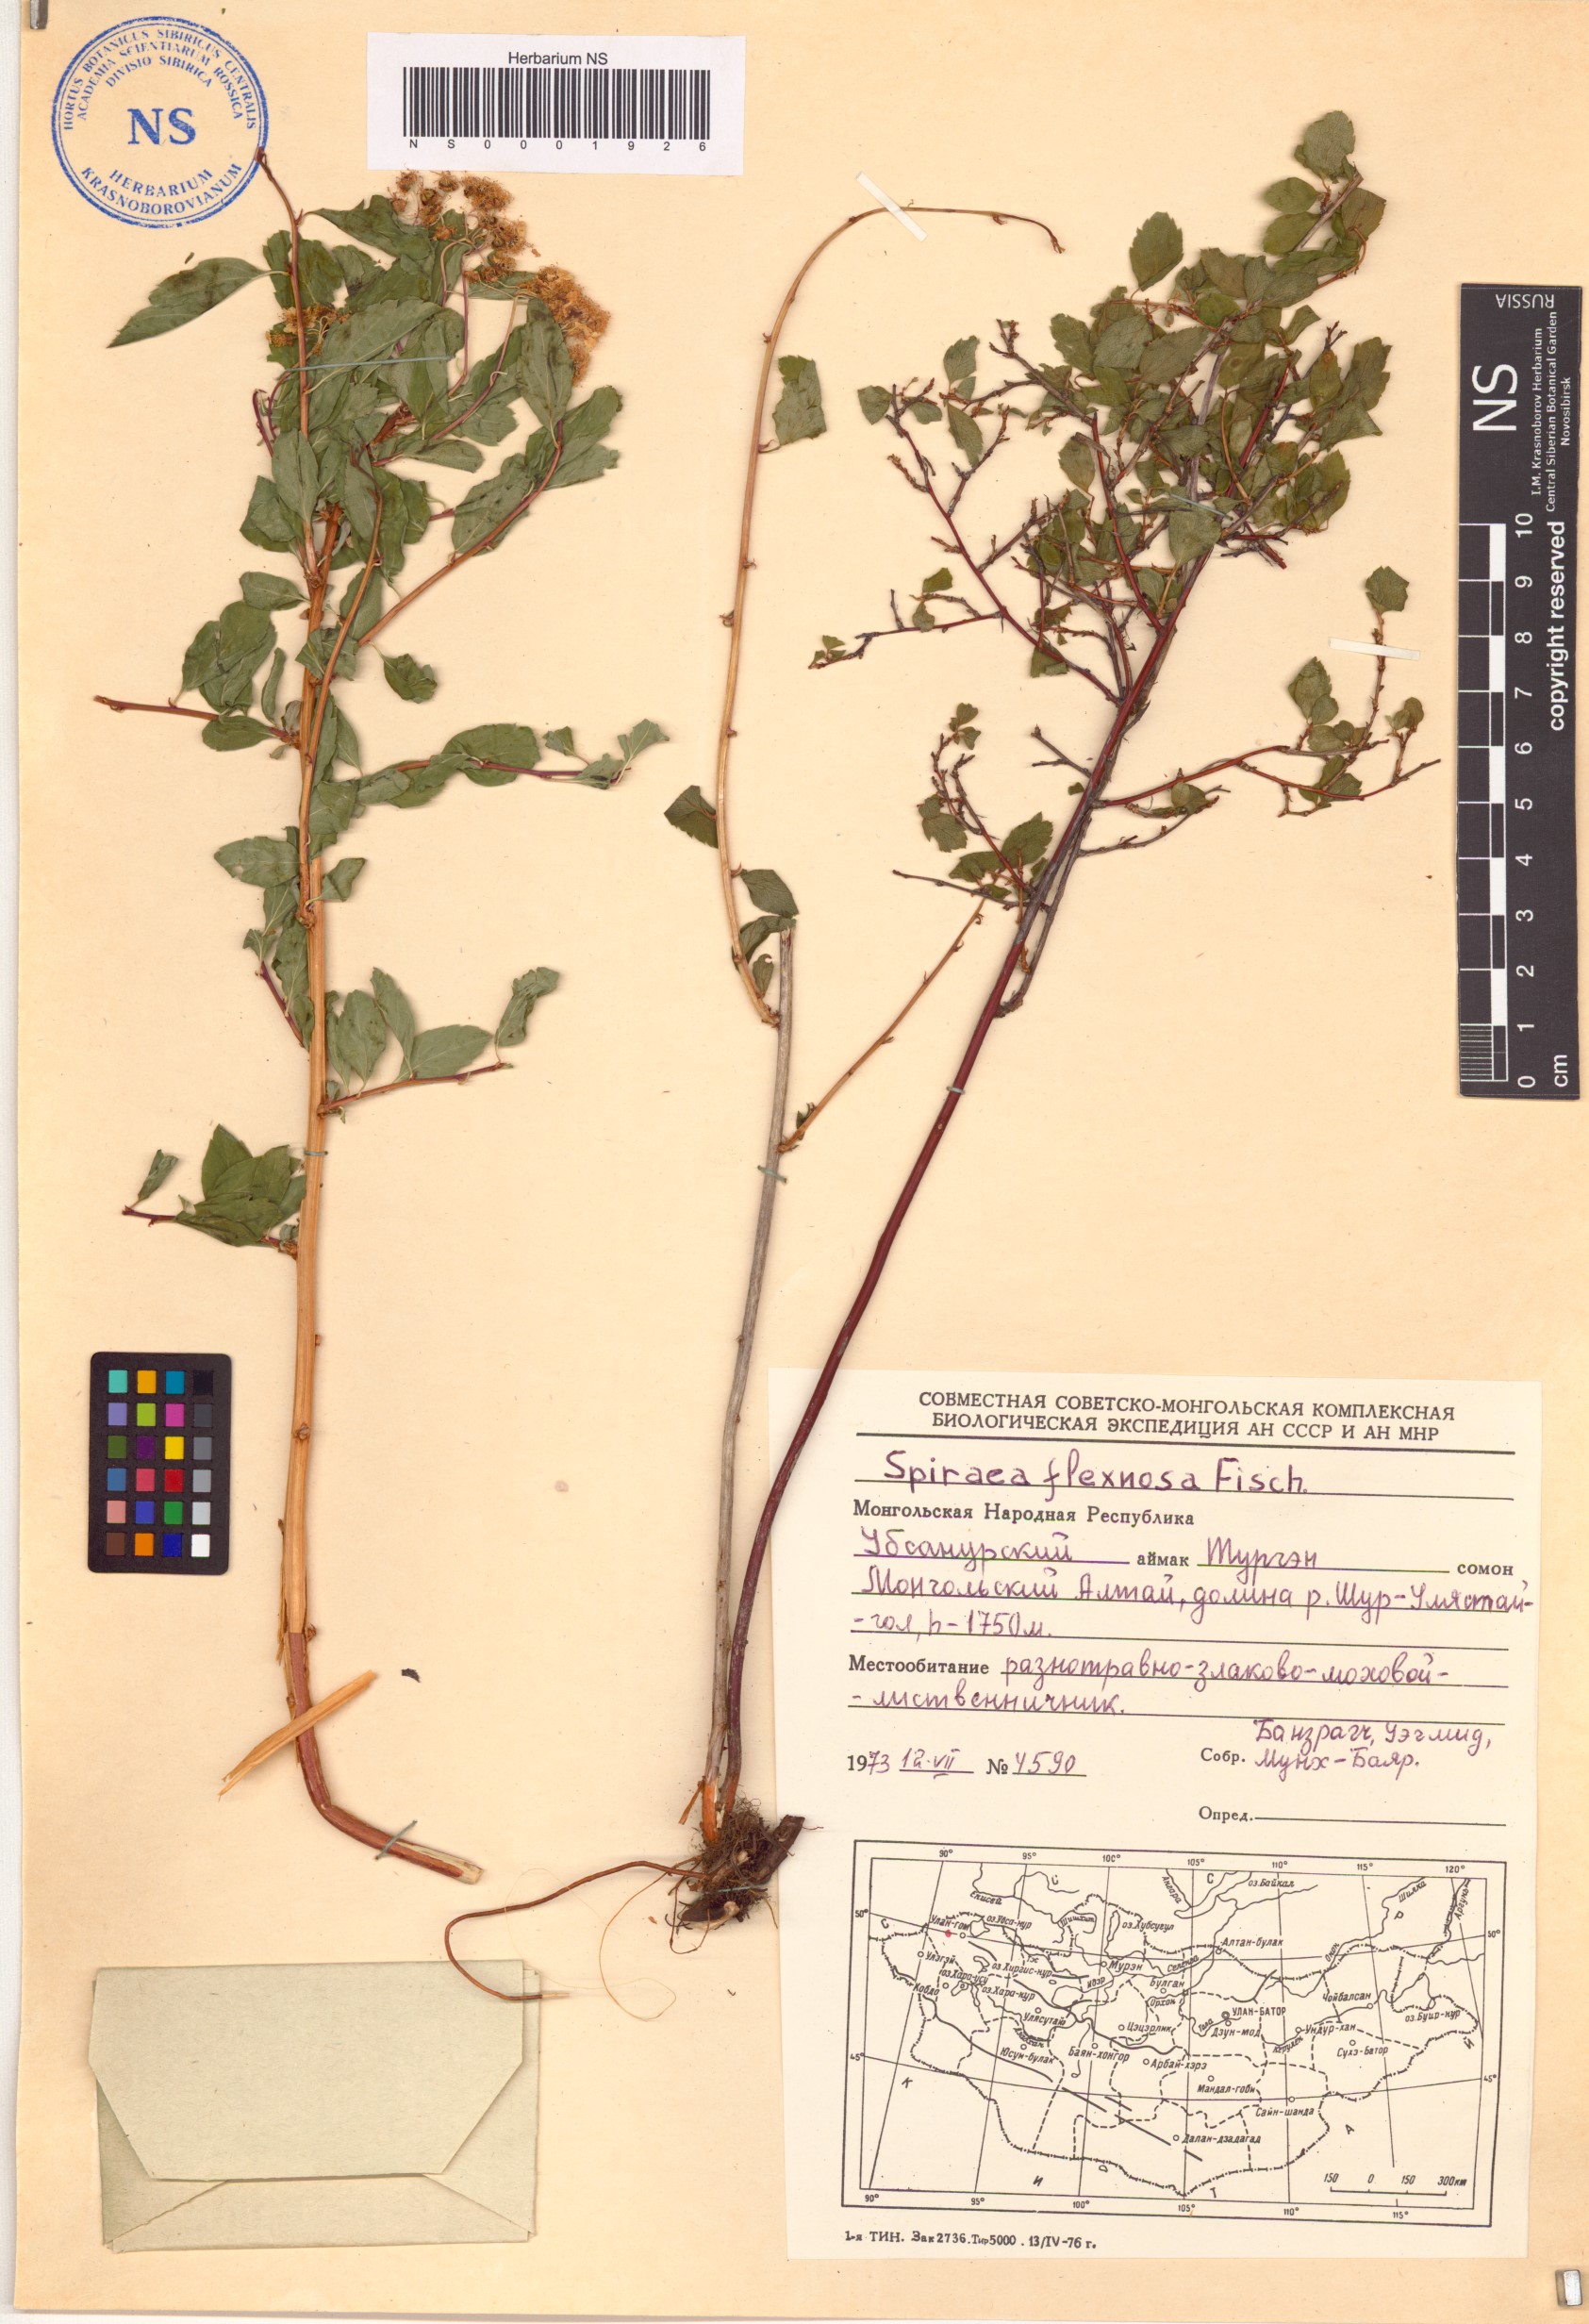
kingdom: Plantae
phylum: Tracheophyta
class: Magnoliopsida
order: Rosales
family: Rosaceae
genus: Spiraea
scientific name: Spiraea flexuosa
